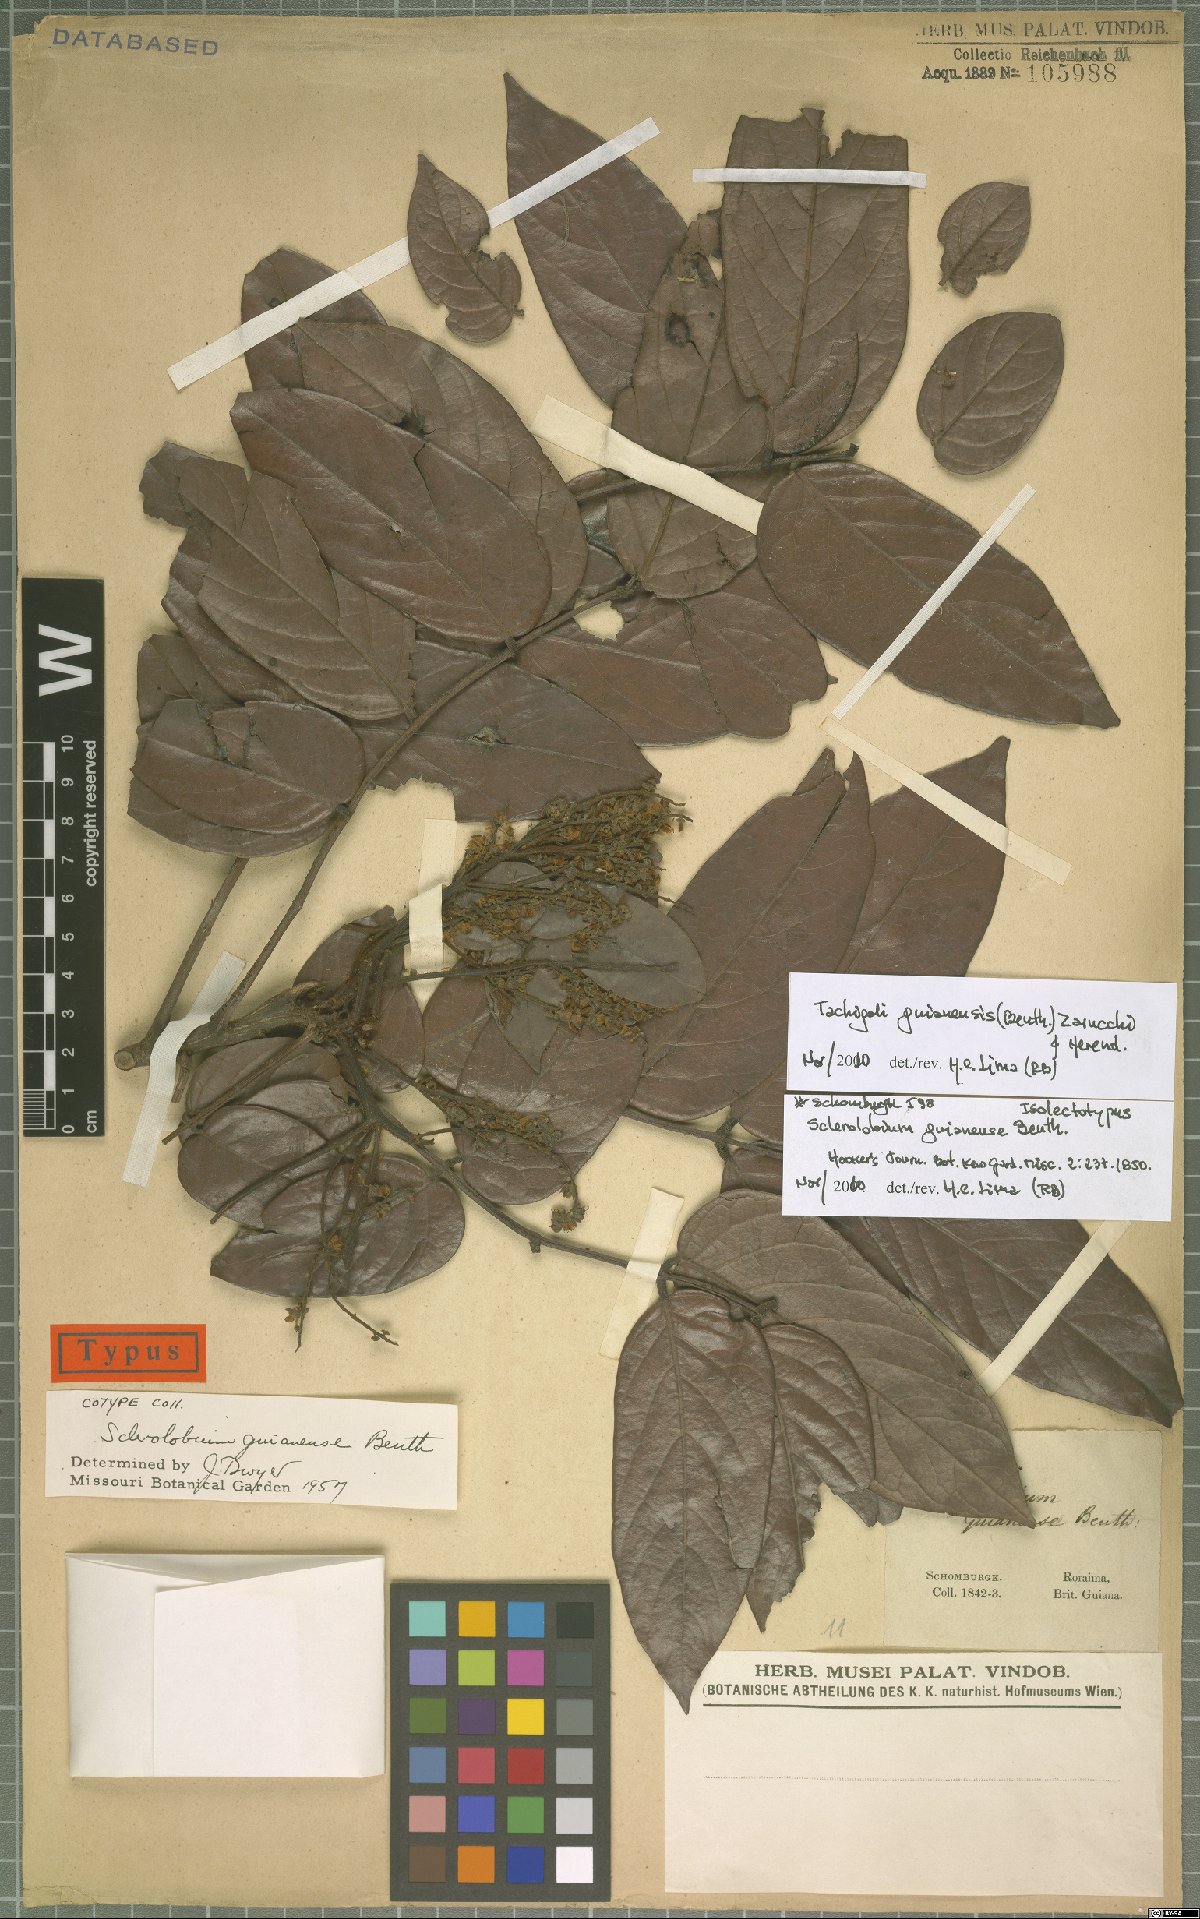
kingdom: Plantae
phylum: Tracheophyta
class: Magnoliopsida
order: Fabales
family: Fabaceae
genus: Tachigali
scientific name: Tachigali guianensis
